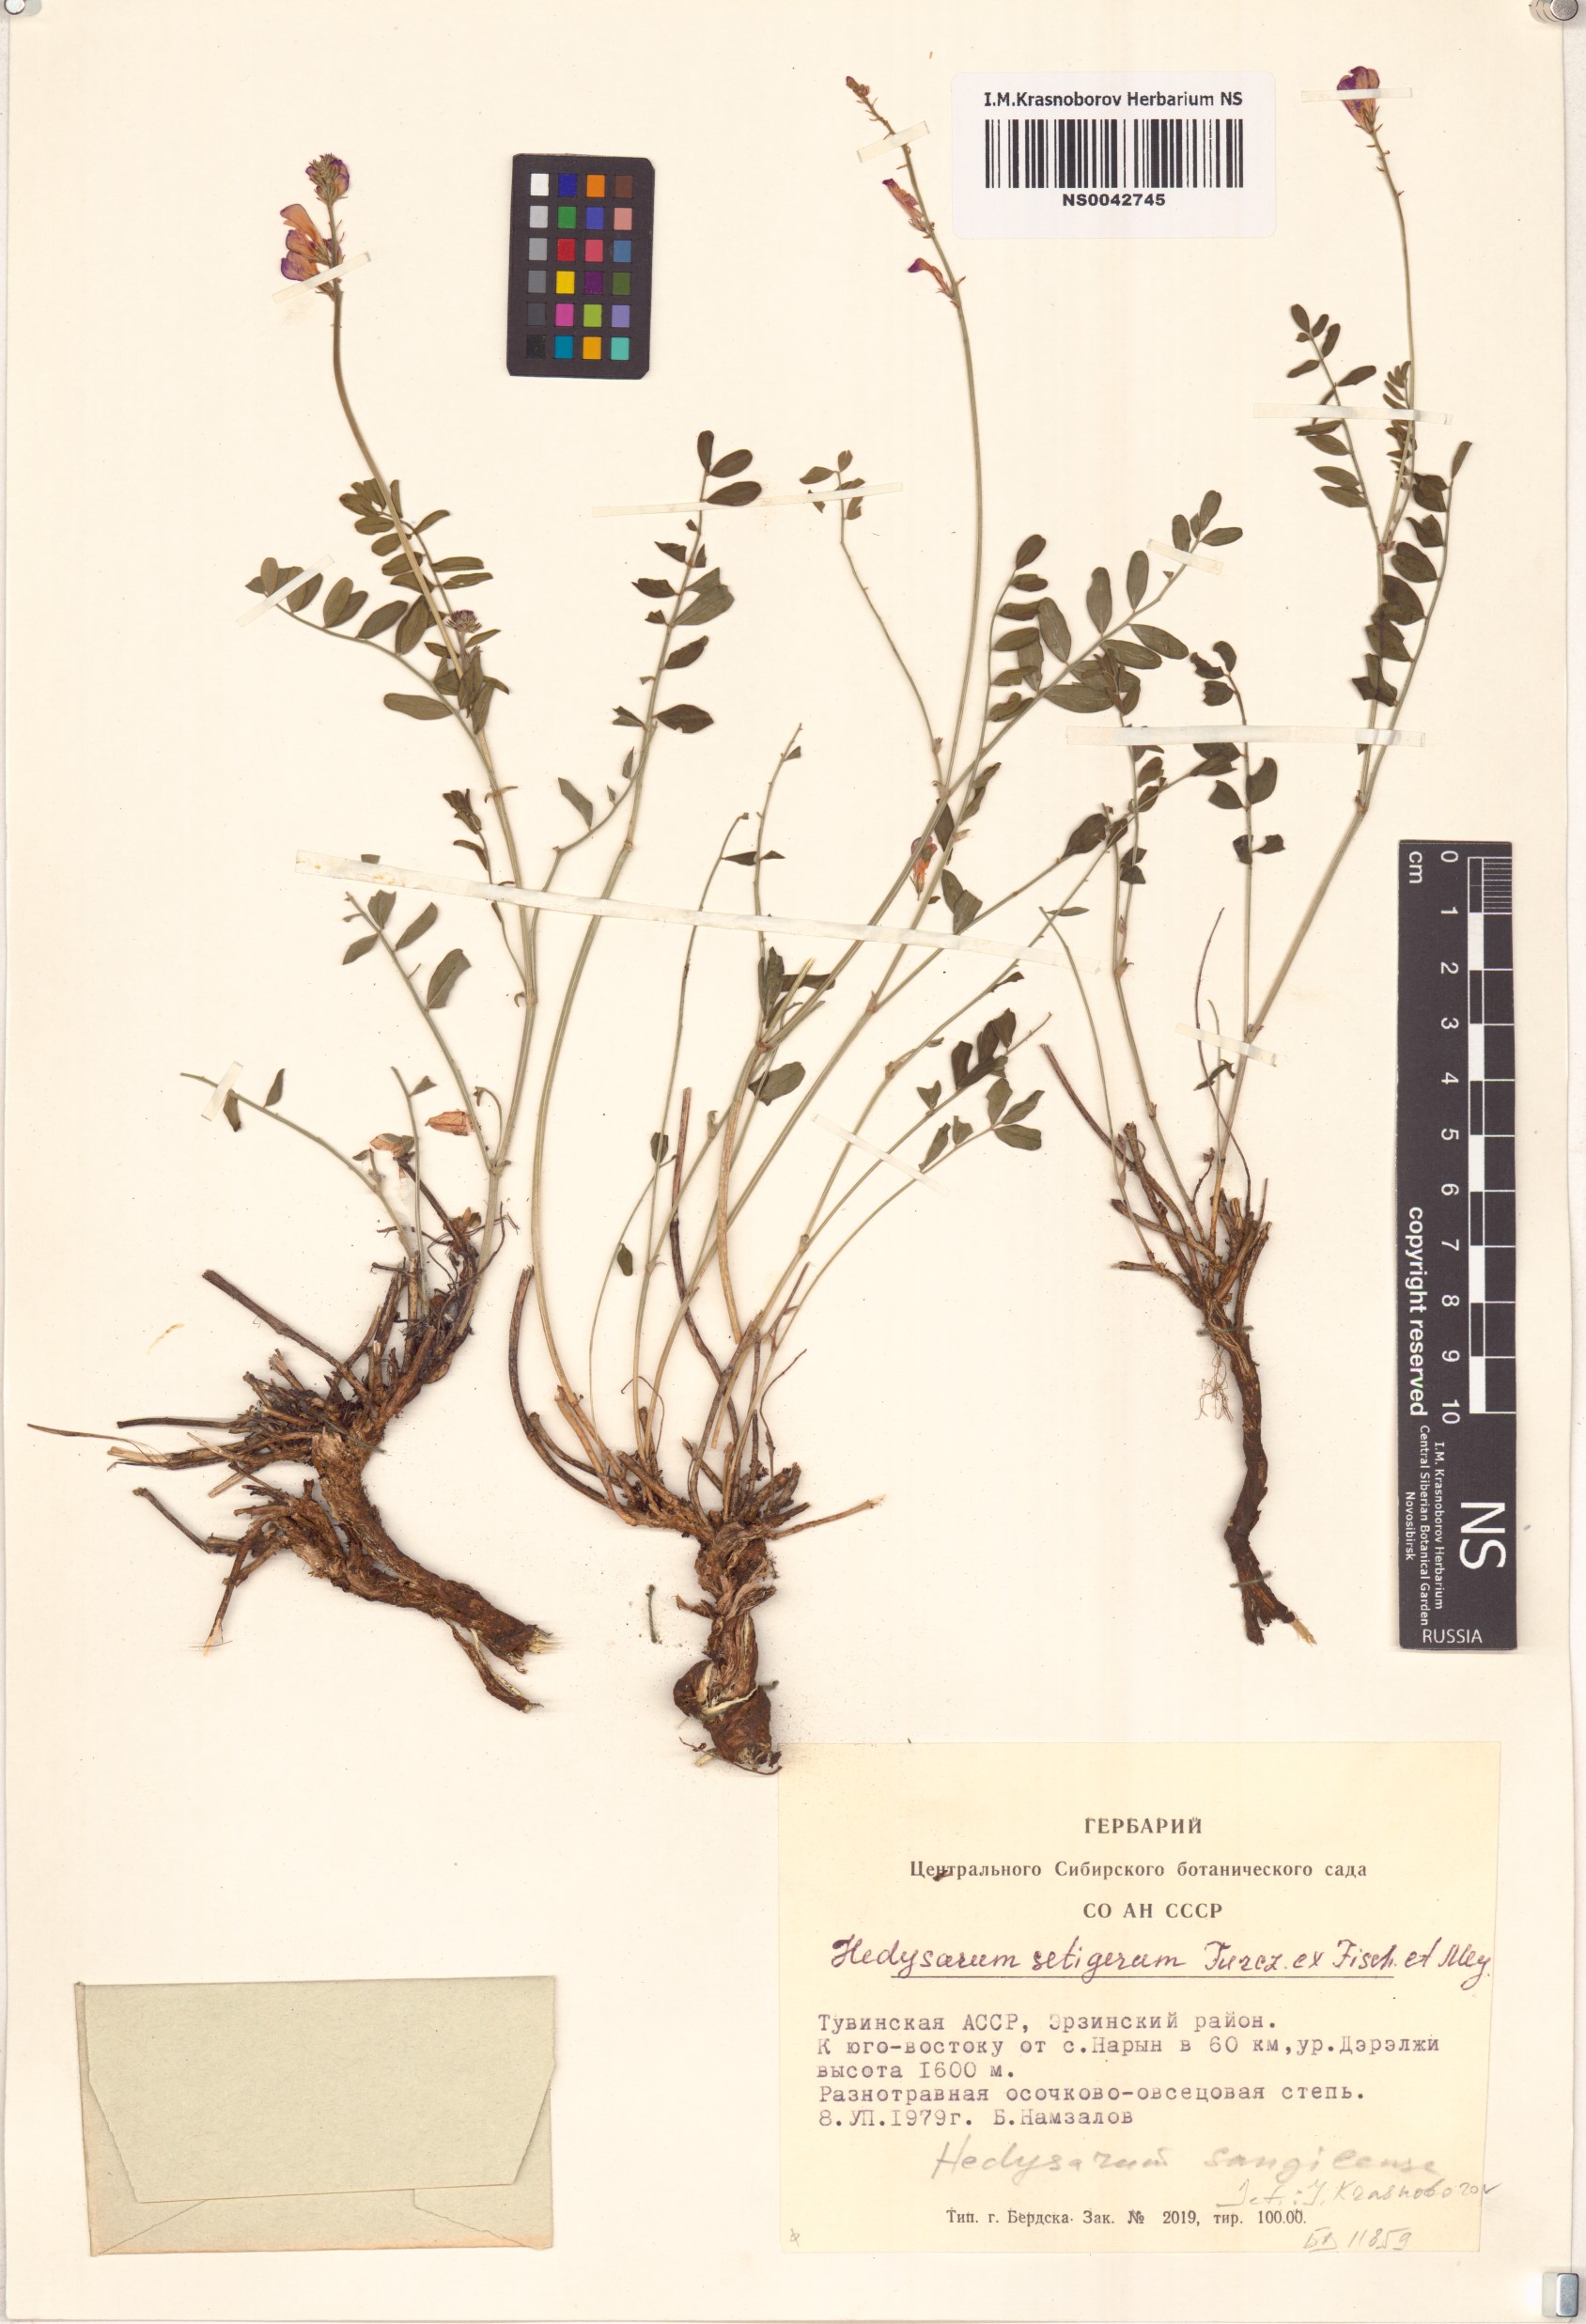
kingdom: Plantae
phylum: Tracheophyta
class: Magnoliopsida
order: Fabales
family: Fabaceae
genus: Hedysarum
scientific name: Hedysarum sangilense
